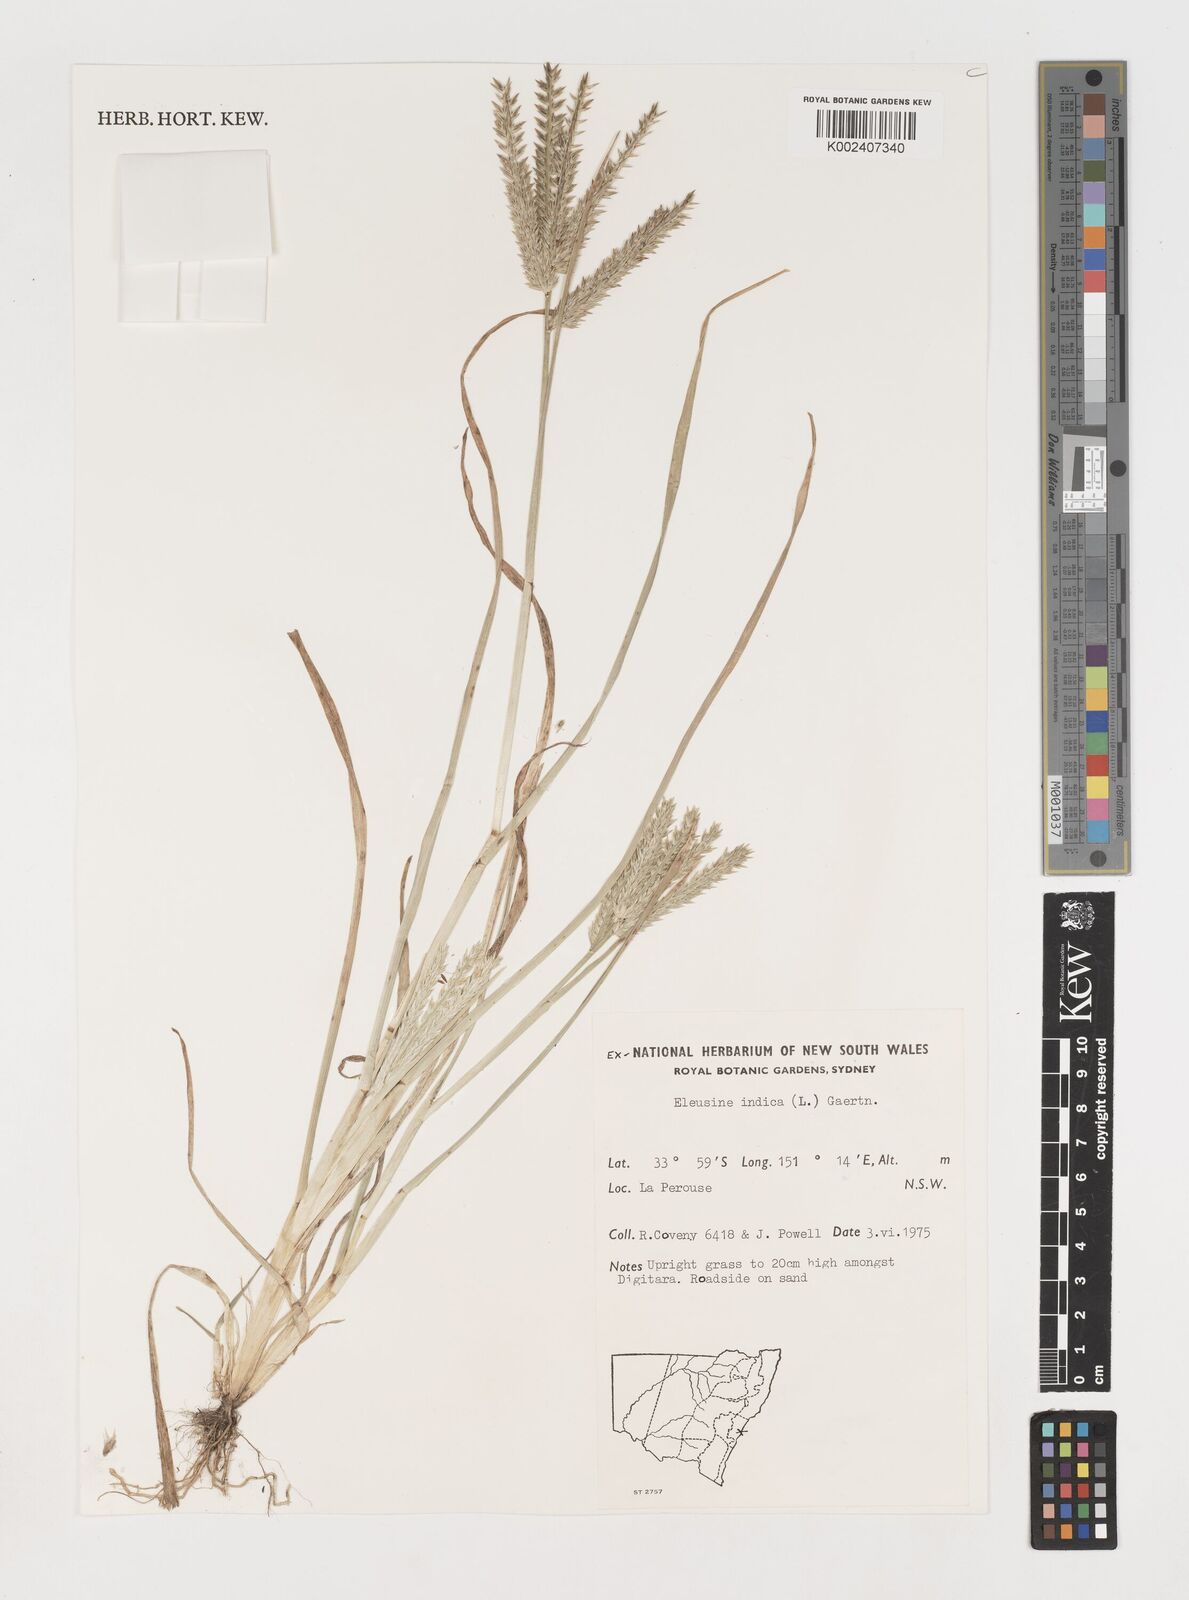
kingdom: Plantae
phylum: Tracheophyta
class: Liliopsida
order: Poales
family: Poaceae
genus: Eleusine
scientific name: Eleusine indica
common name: Yard-grass
